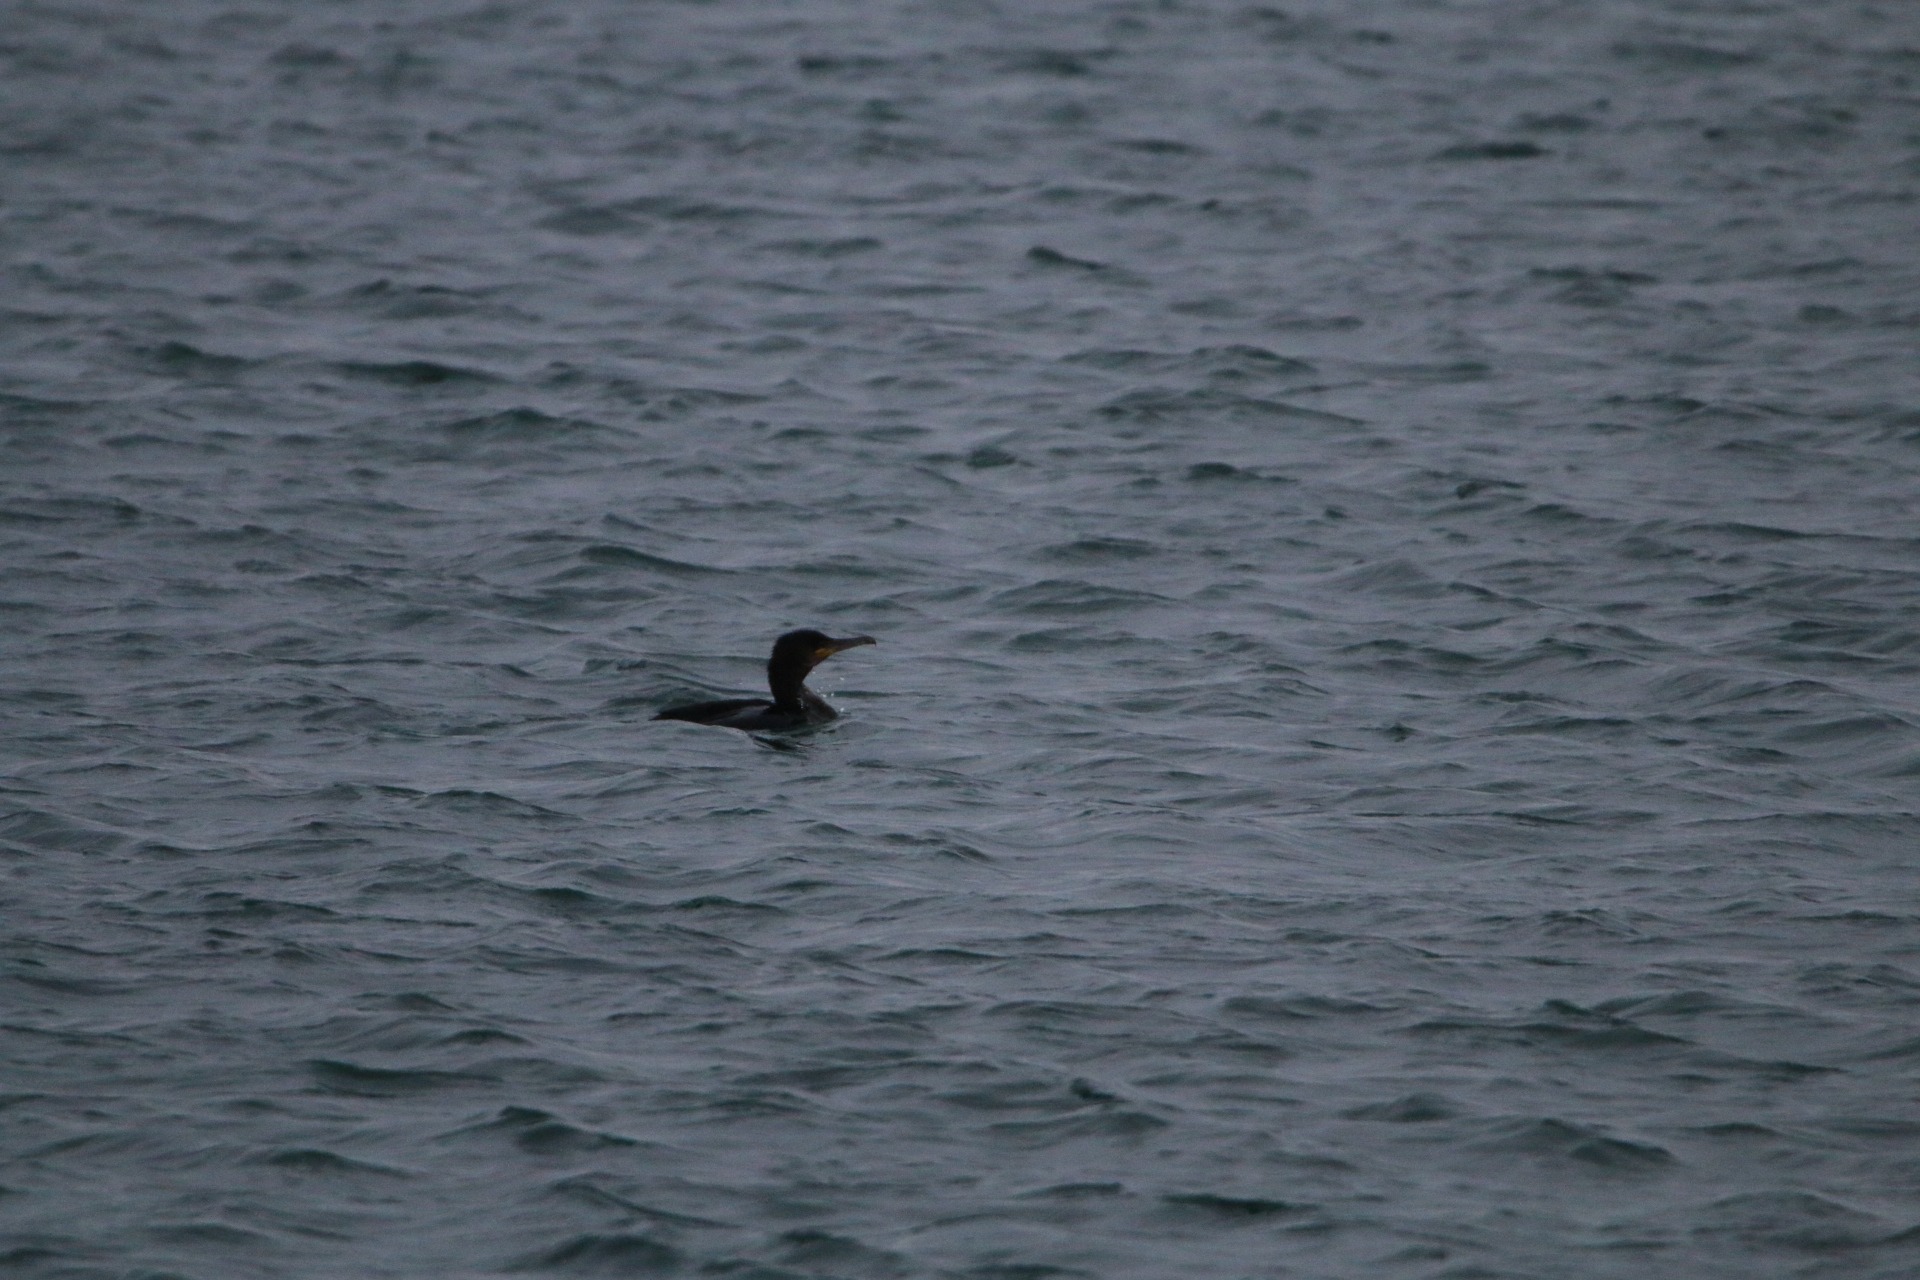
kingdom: Animalia
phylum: Chordata
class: Aves
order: Suliformes
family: Phalacrocoracidae
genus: Phalacrocorax
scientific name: Phalacrocorax carbo
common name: Skarv
